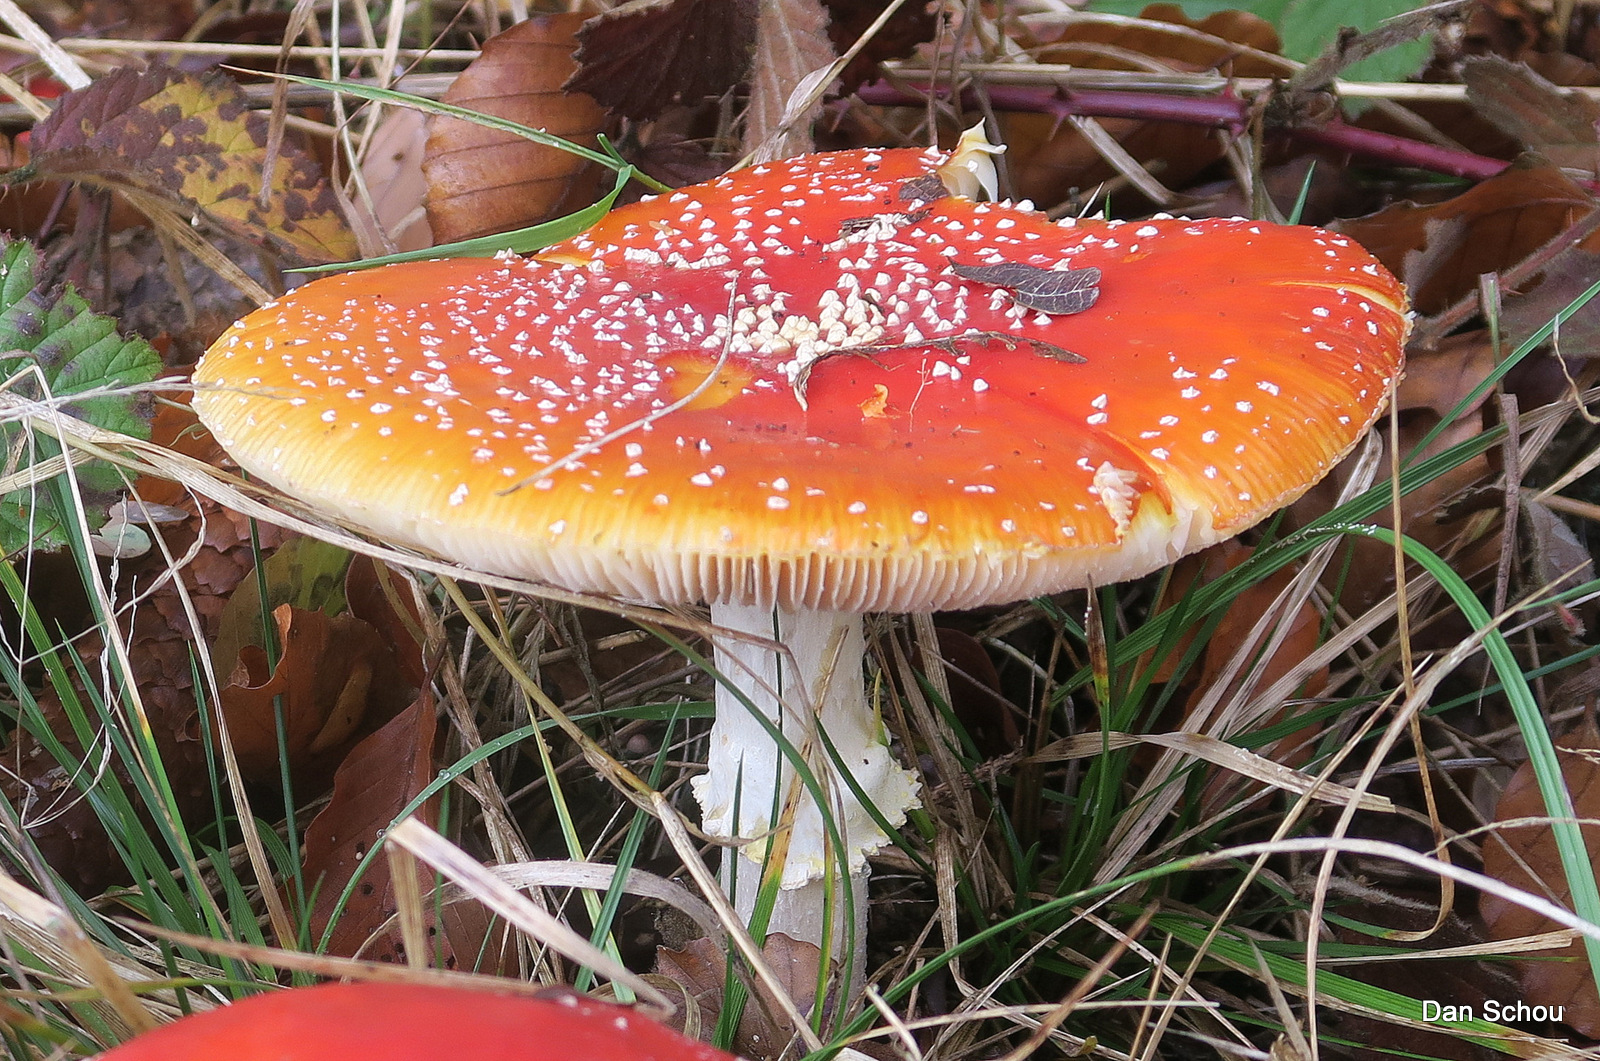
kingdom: Fungi
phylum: Basidiomycota
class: Agaricomycetes
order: Agaricales
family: Amanitaceae
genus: Amanita
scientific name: Amanita muscaria
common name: rød fluesvamp
